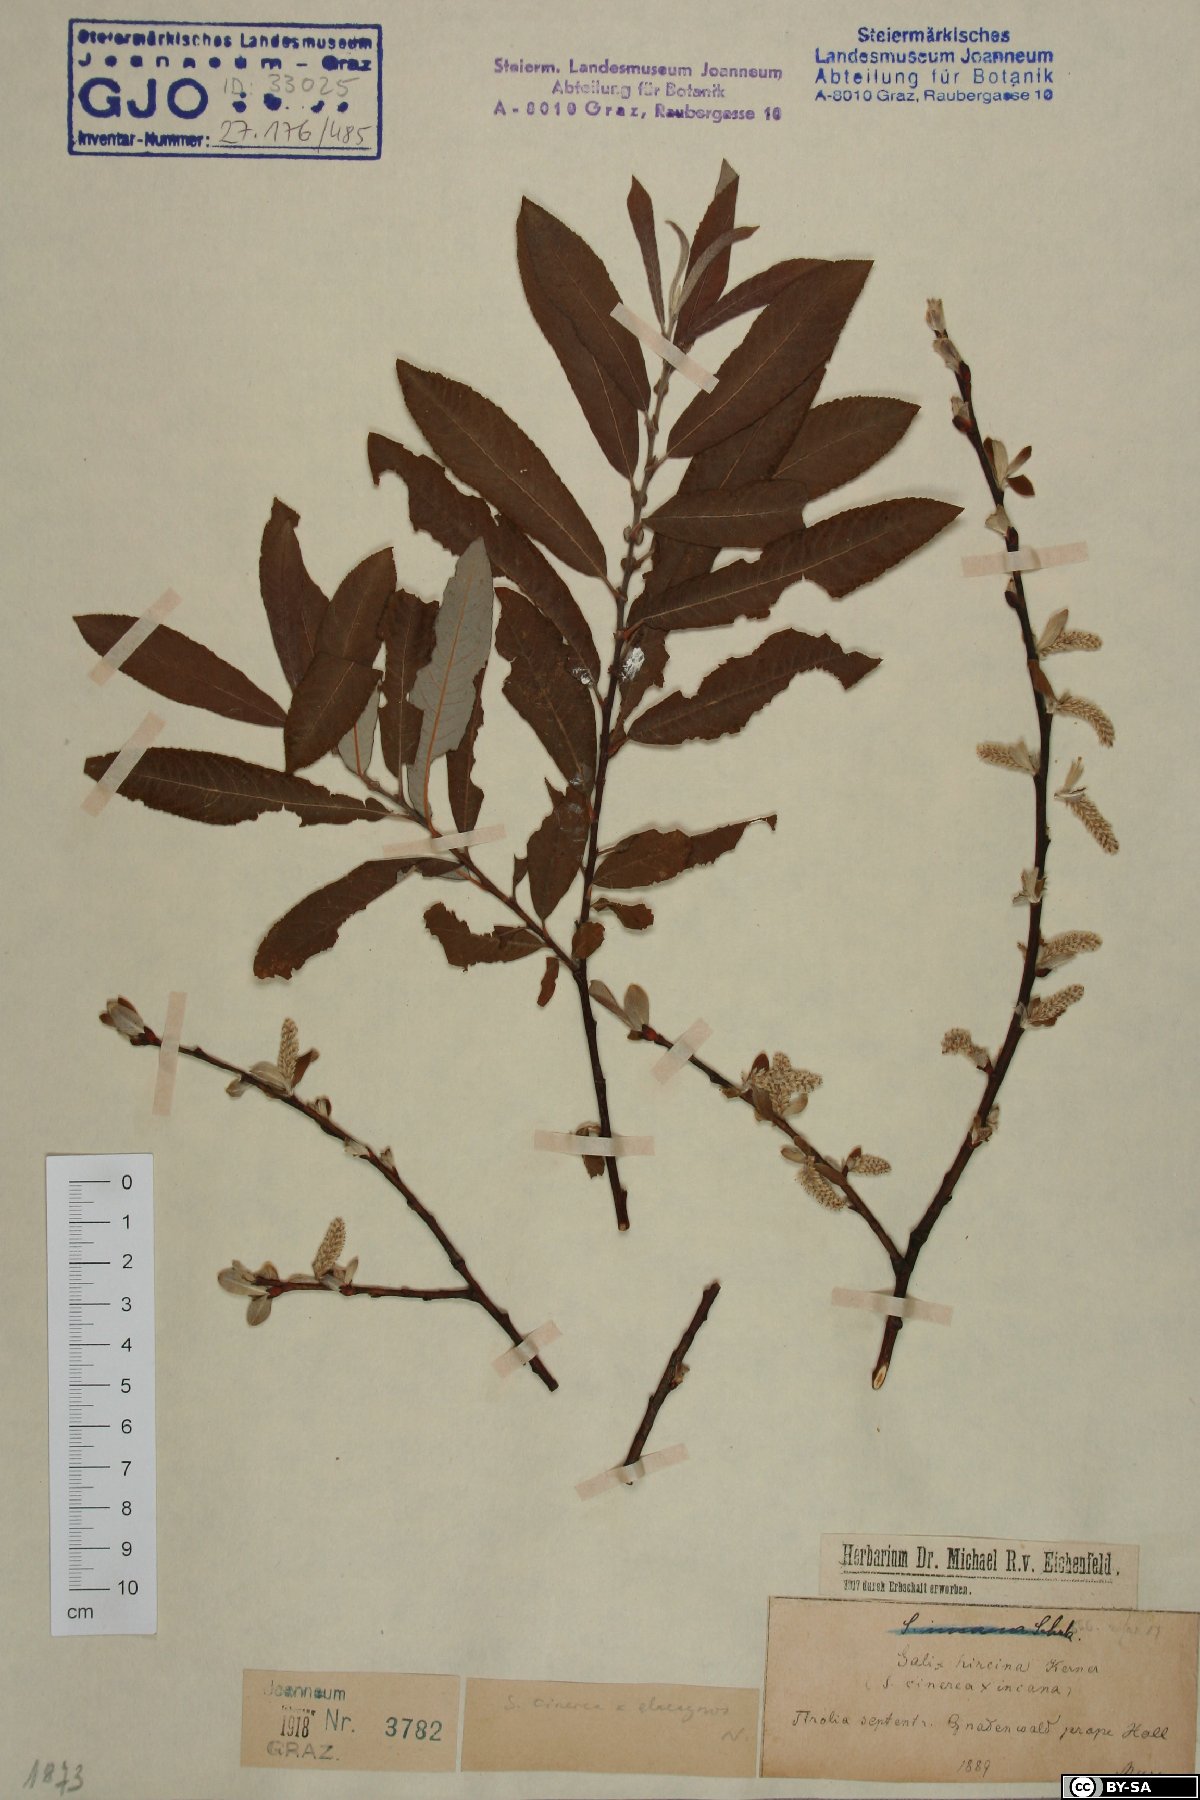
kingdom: Plantae
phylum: Tracheophyta
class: Magnoliopsida
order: Malpighiales
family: Salicaceae
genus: Salix
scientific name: Salix eleagnos
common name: Elaeagnus willow
